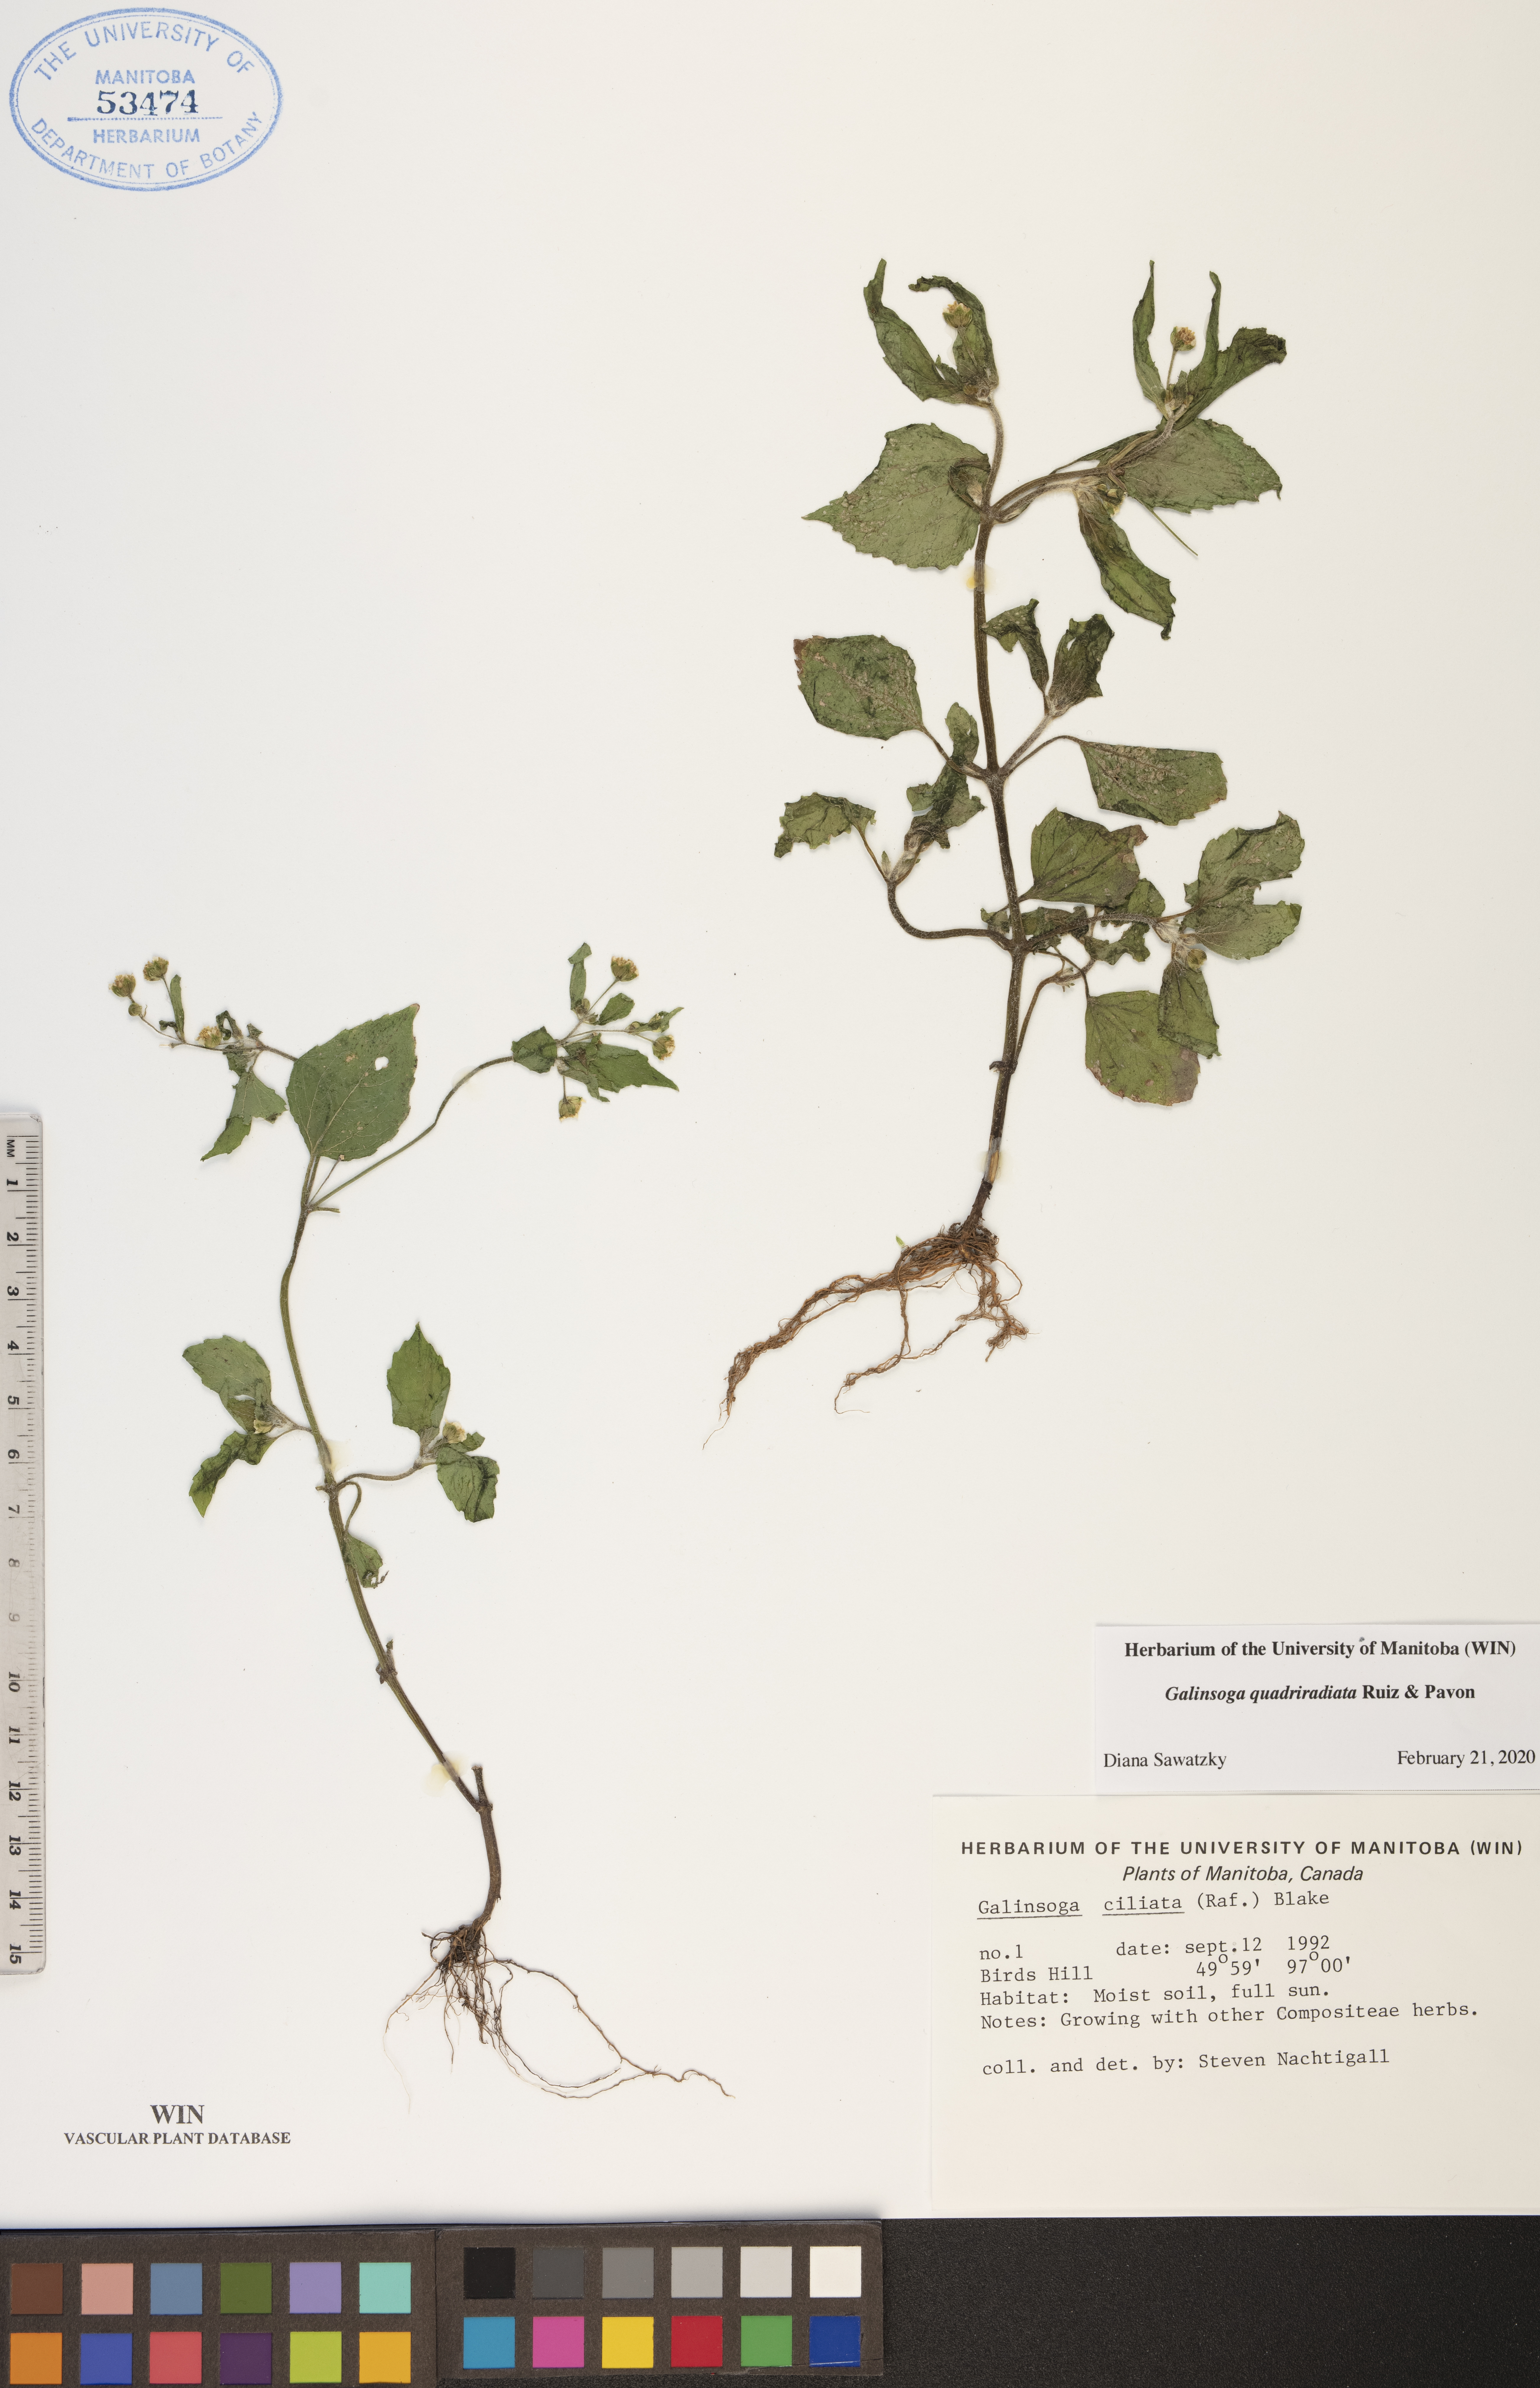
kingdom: Plantae
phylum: Tracheophyta
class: Magnoliopsida
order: Asterales
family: Asteraceae
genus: Galinsoga
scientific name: Galinsoga quadriradiata
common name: Shaggy soldier
